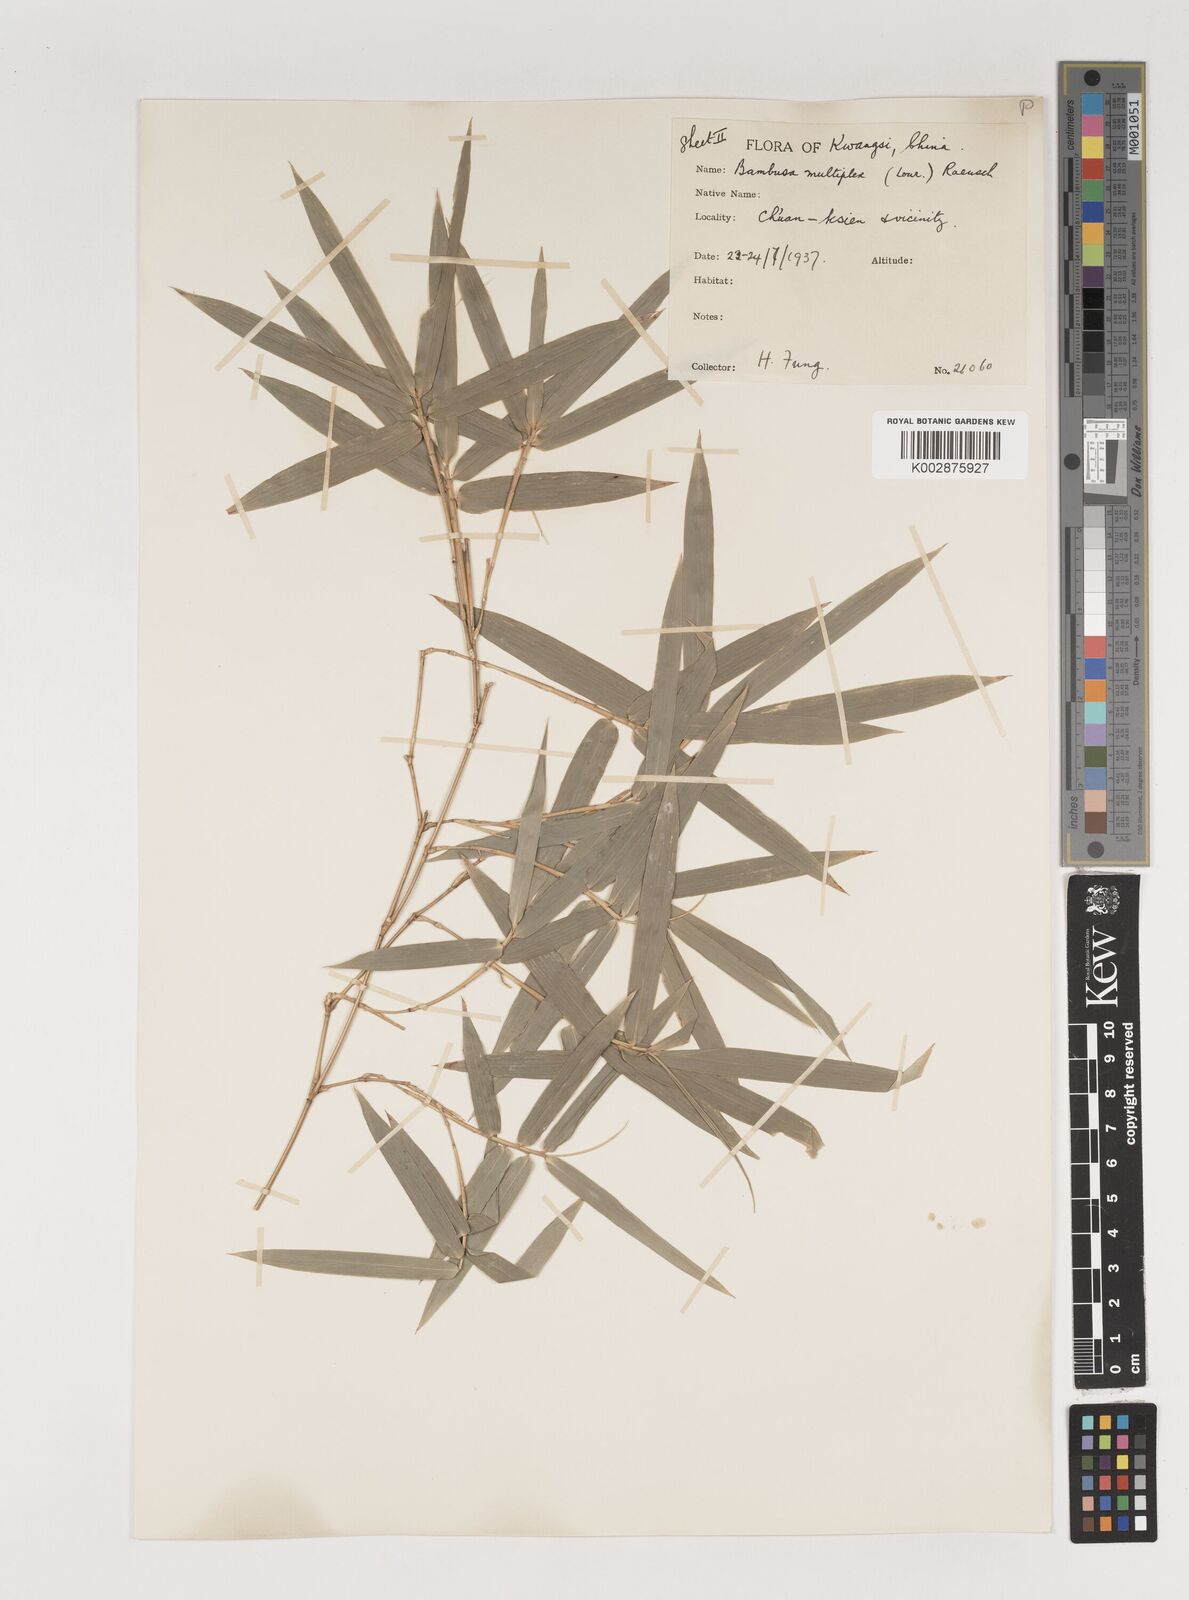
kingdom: Plantae
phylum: Tracheophyta
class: Liliopsida
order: Poales
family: Poaceae
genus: Bambusa
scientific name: Bambusa multiplex
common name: Hedge bamboo
